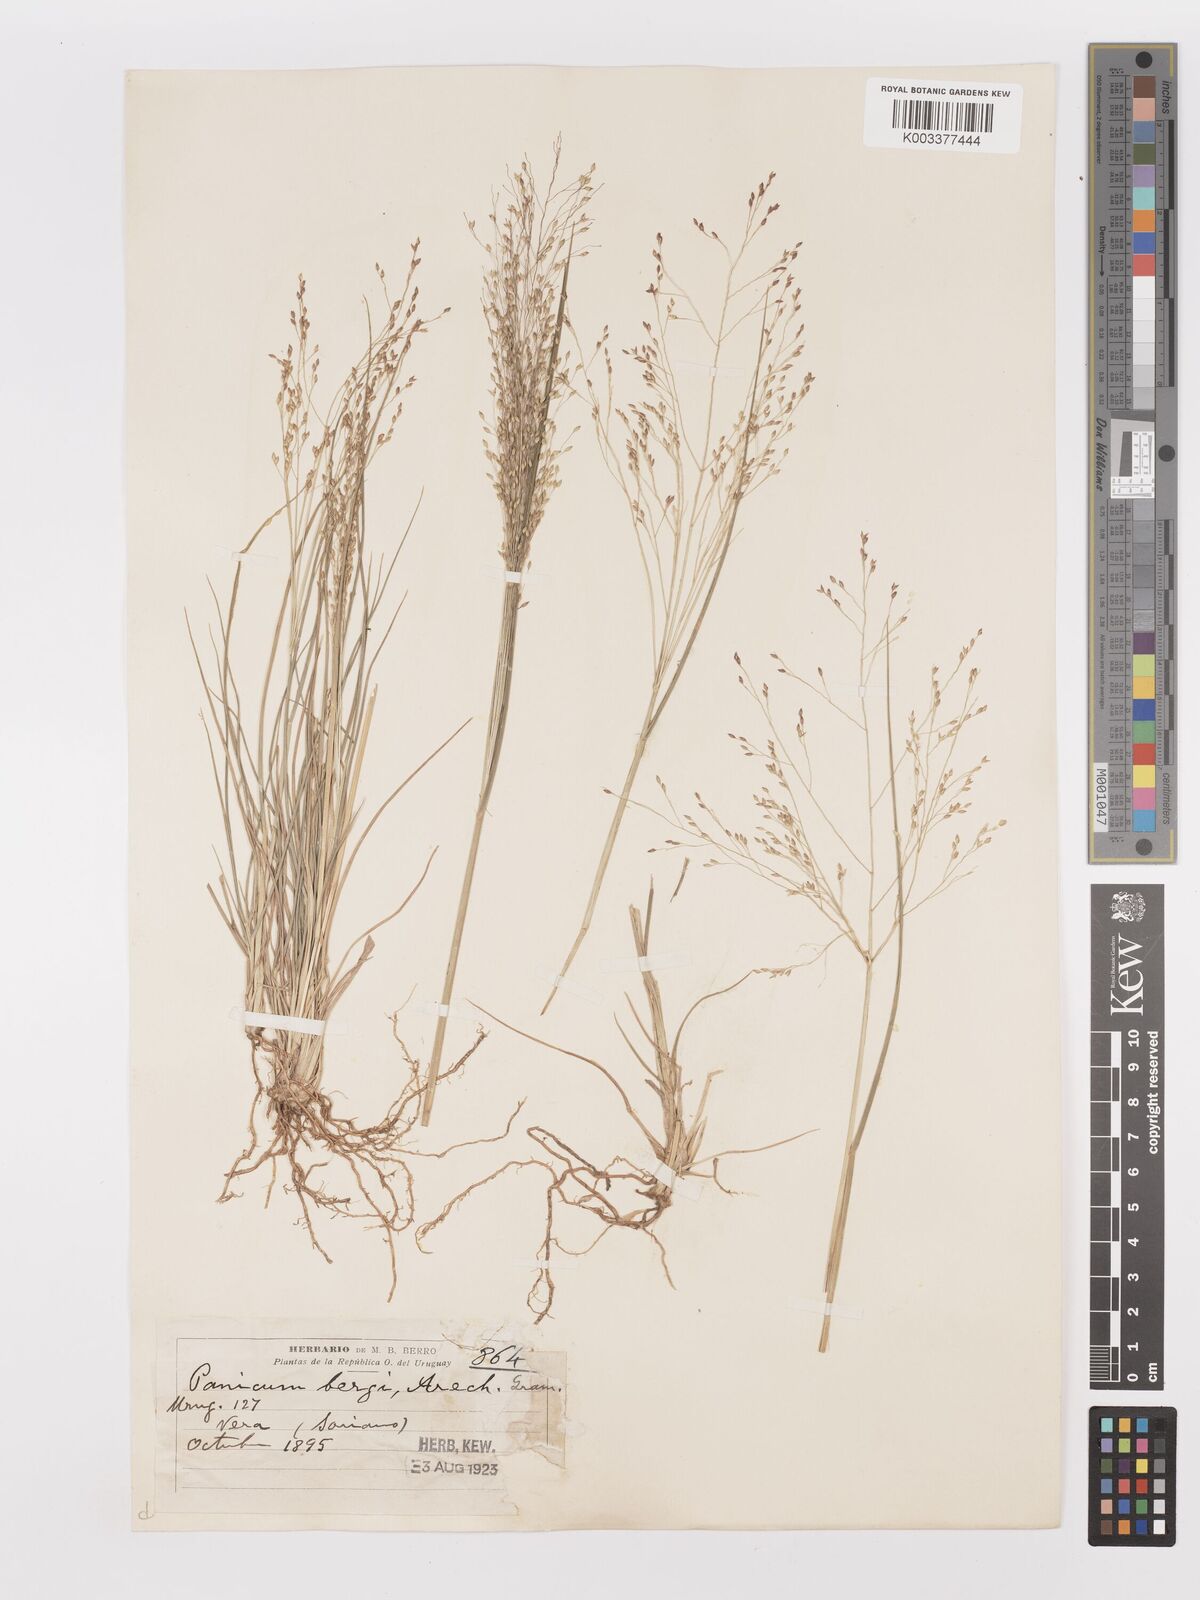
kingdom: Plantae
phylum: Tracheophyta
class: Liliopsida
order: Poales
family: Poaceae
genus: Panicum
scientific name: Panicum bergii
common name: Berg's panicgrass
